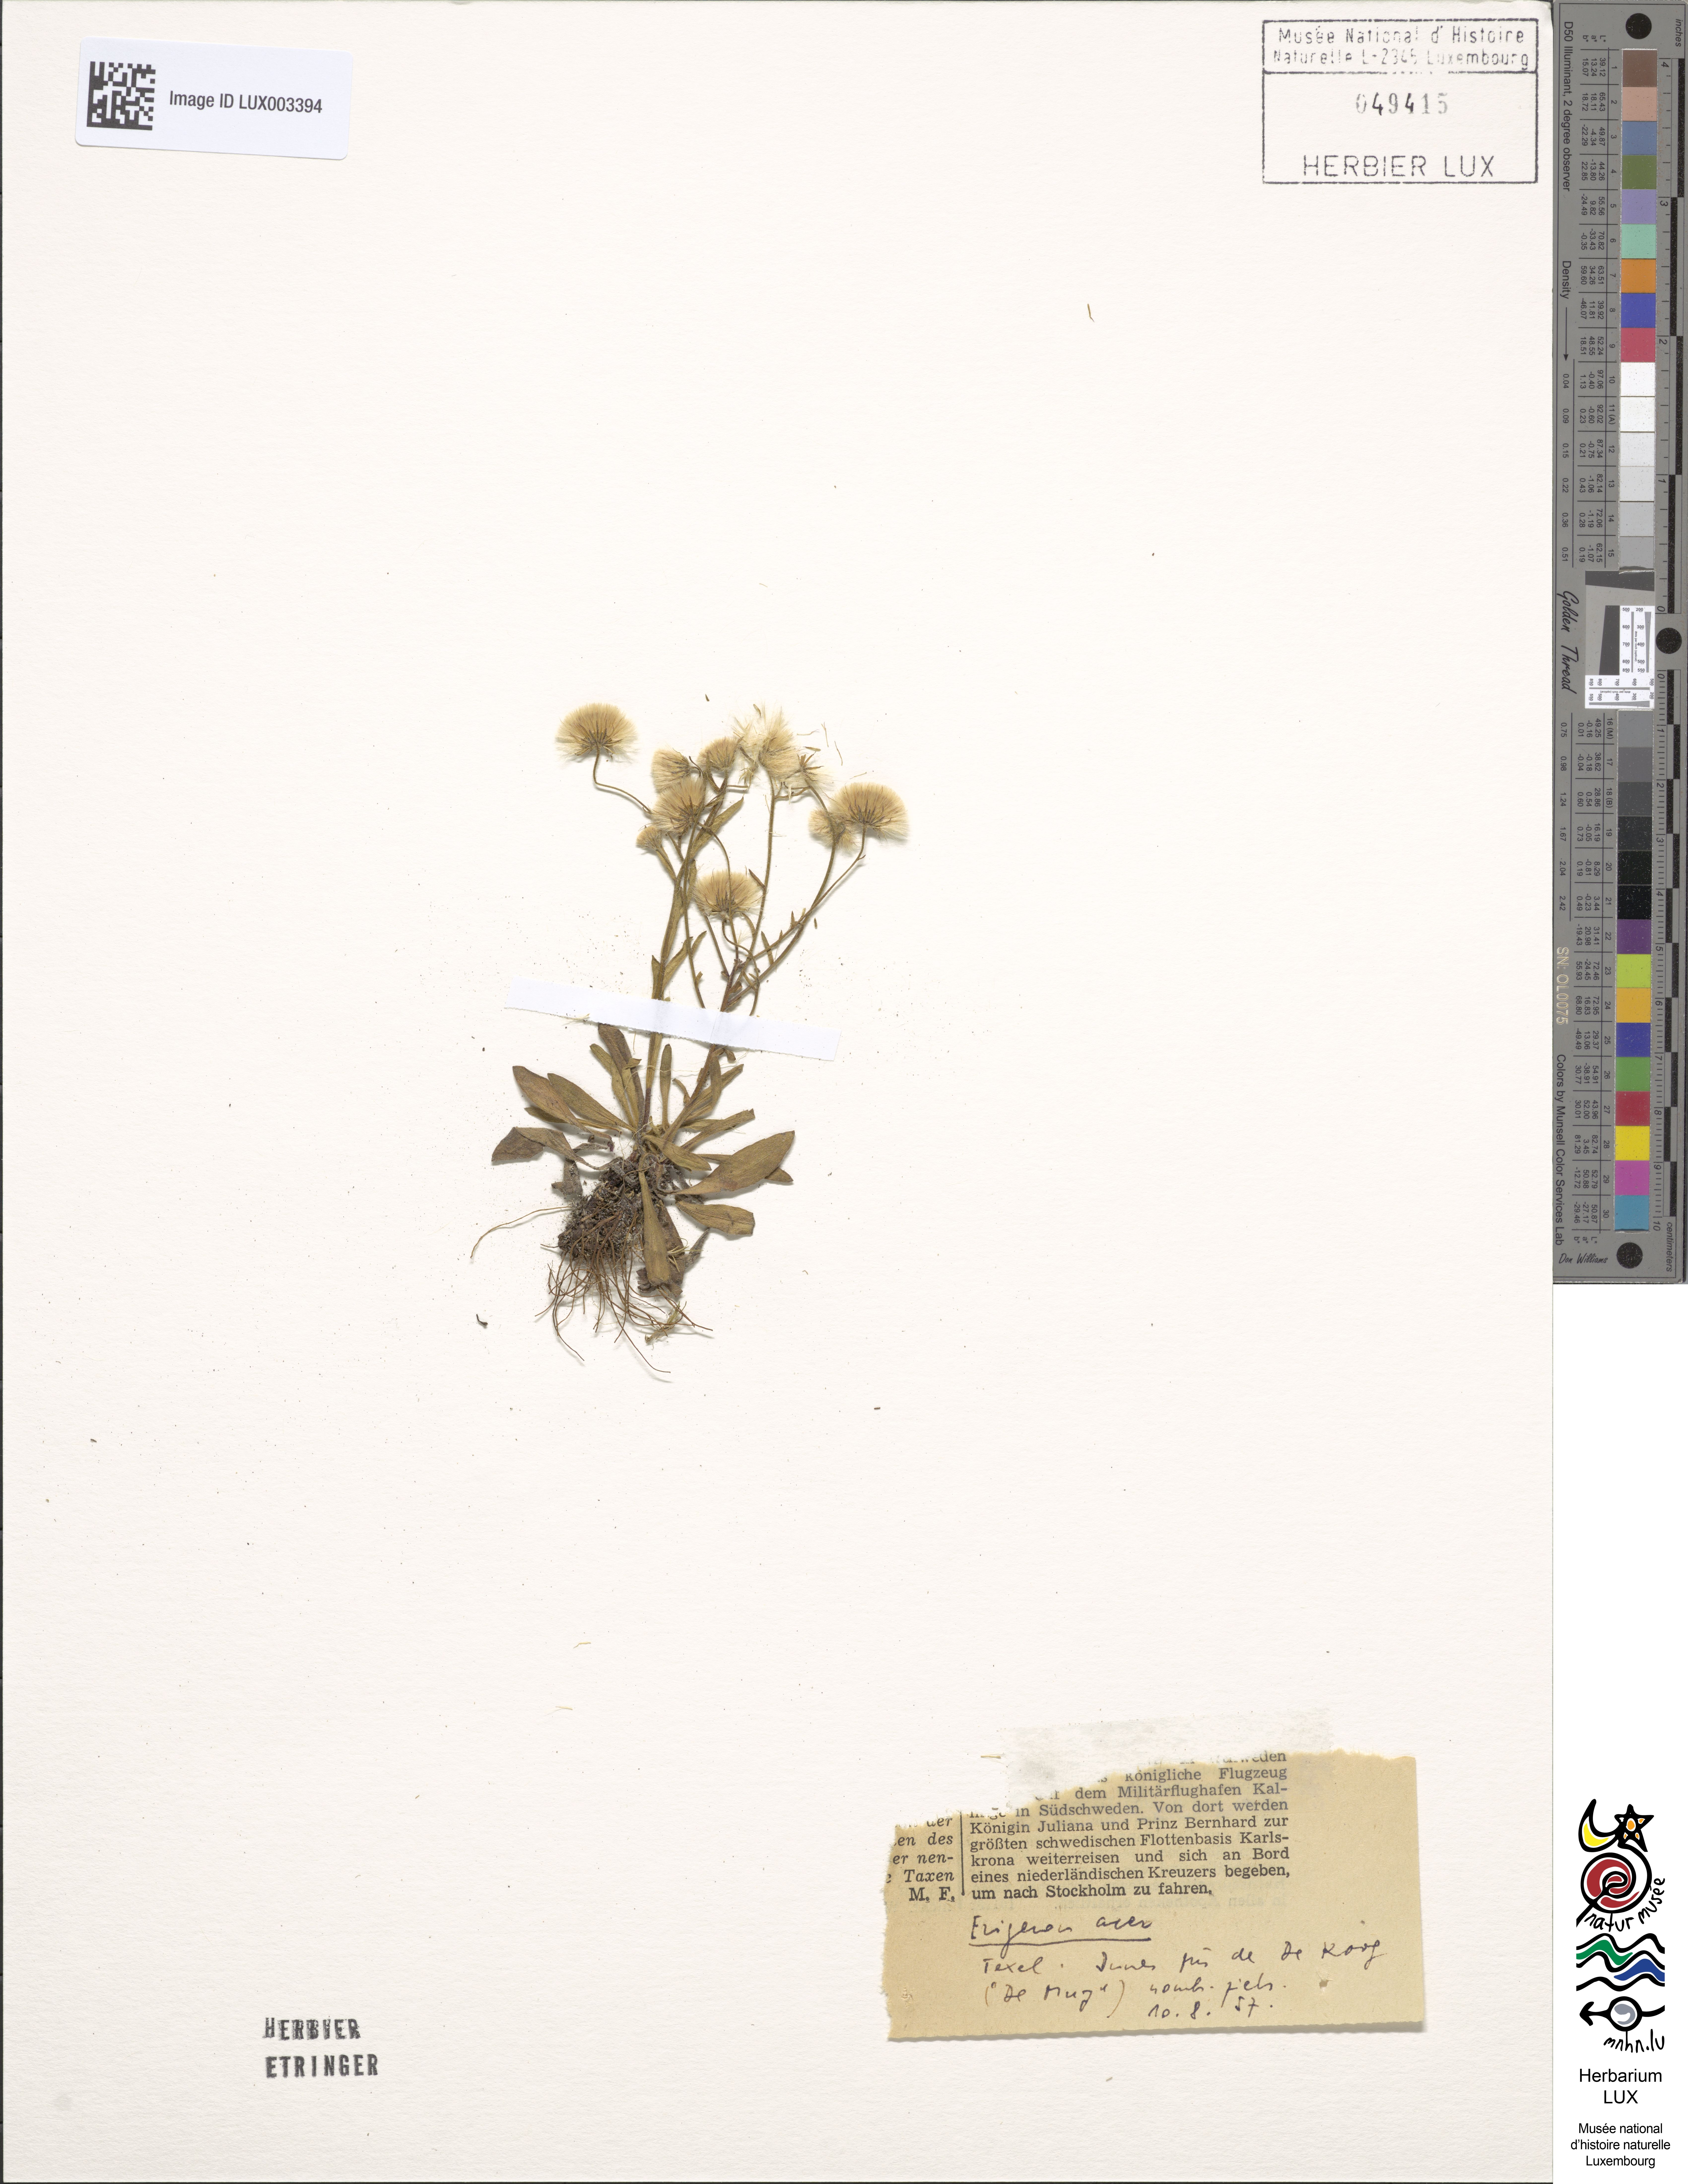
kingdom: Plantae
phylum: Tracheophyta
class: Magnoliopsida
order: Asterales
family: Asteraceae
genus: Erigeron
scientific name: Erigeron acris
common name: Blue fleabane
